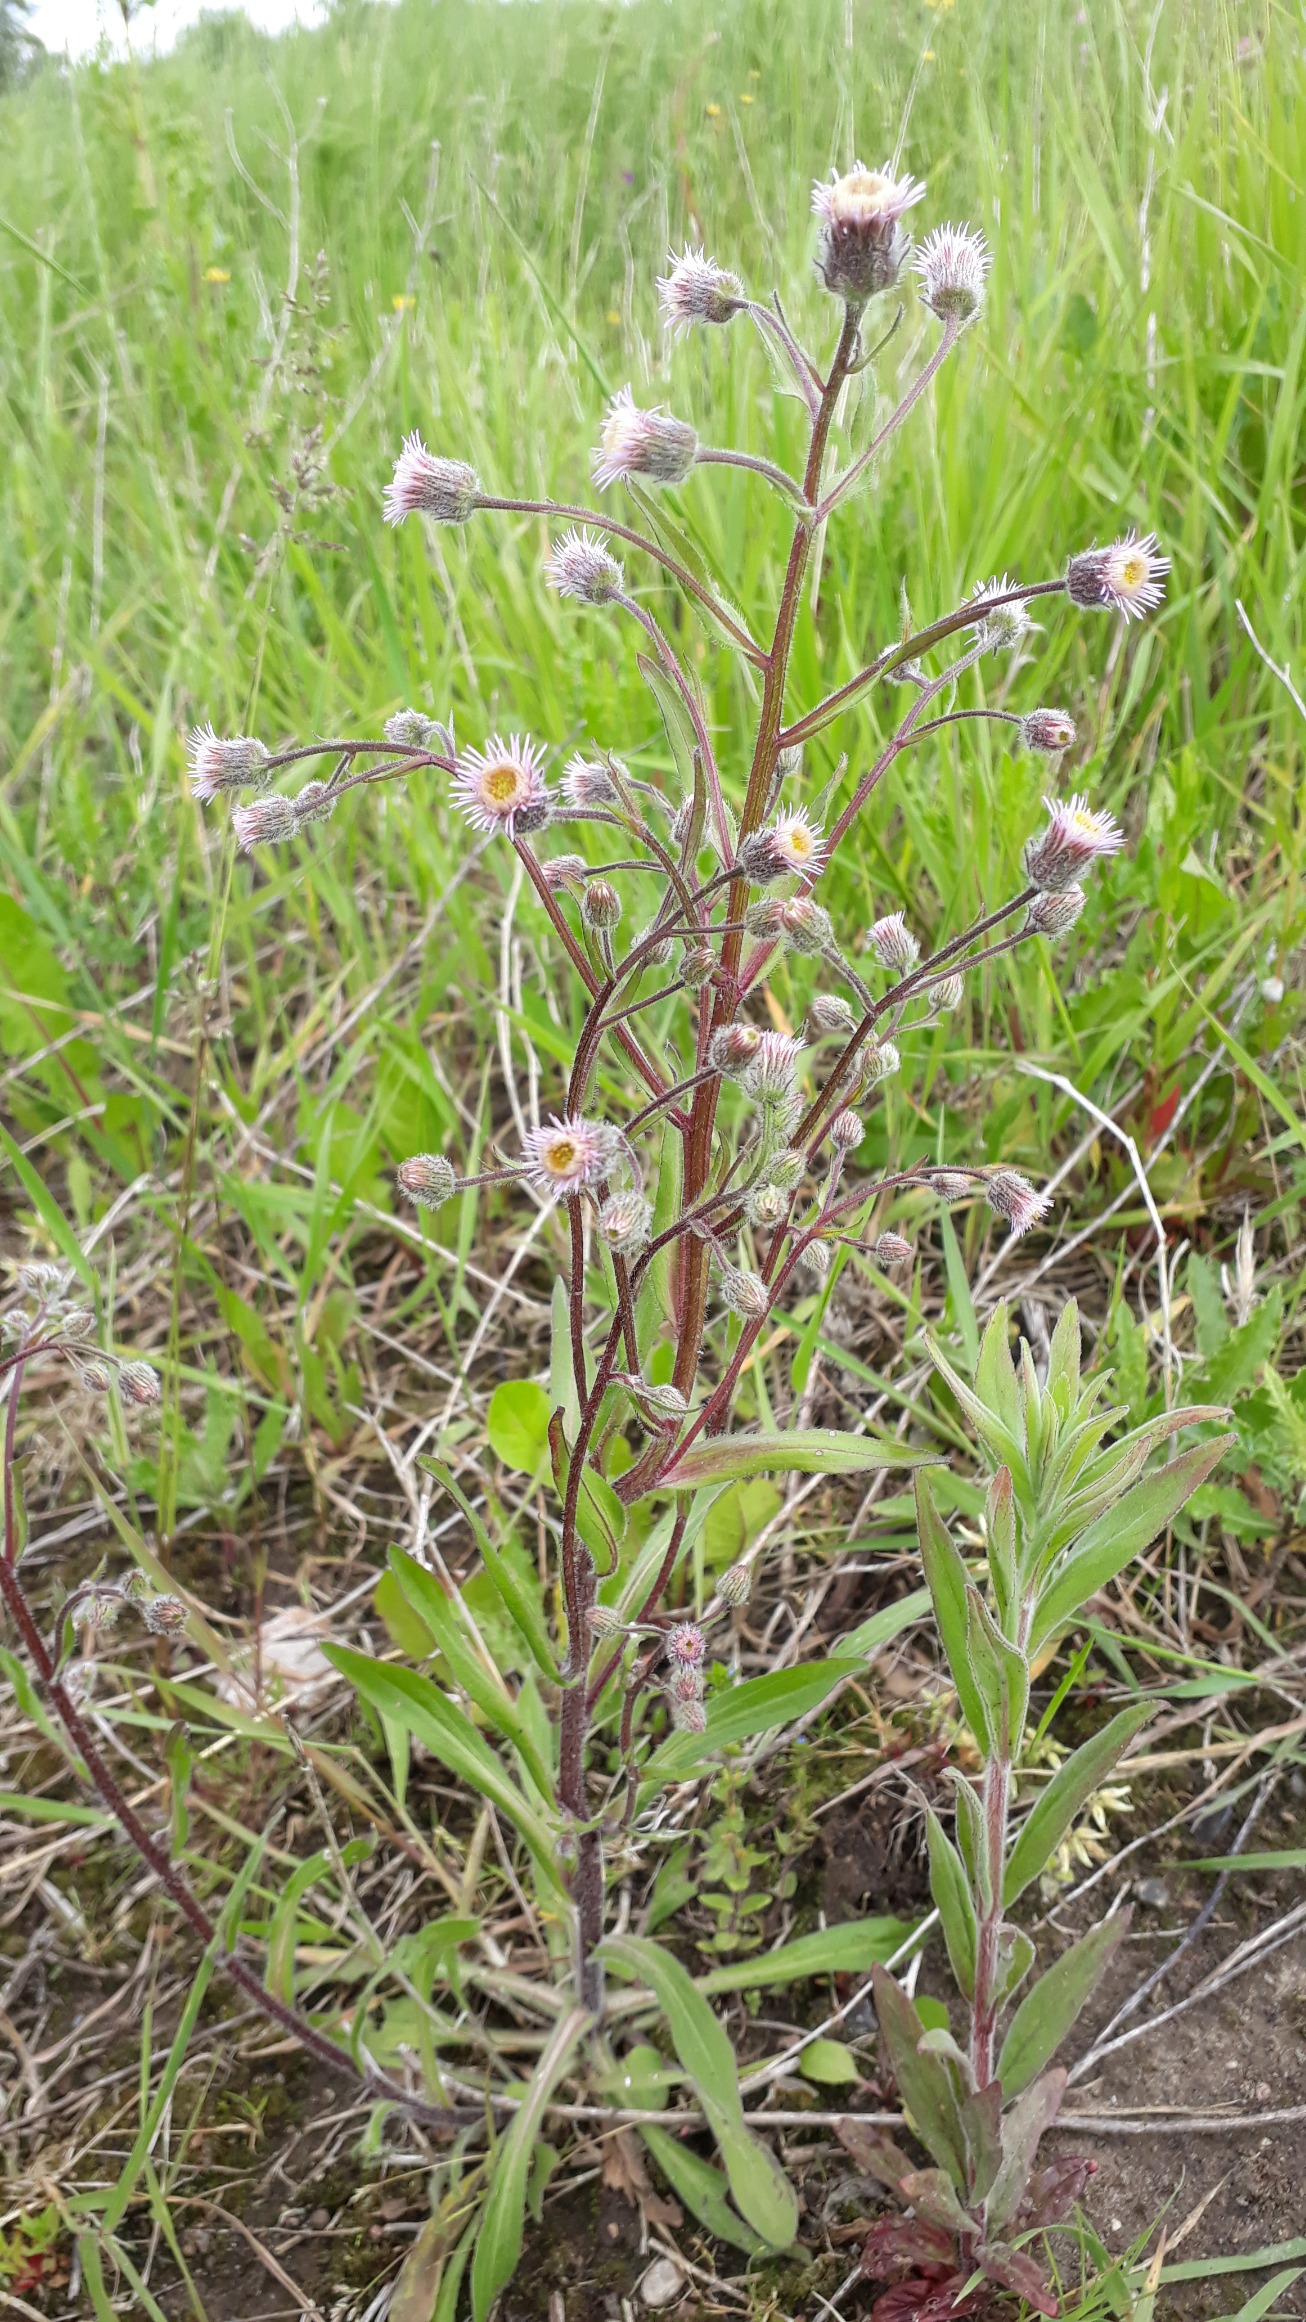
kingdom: Plantae
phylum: Tracheophyta
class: Magnoliopsida
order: Asterales
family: Asteraceae
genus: Erigeron
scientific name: Erigeron acris
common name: Bitter bakkestjerne
